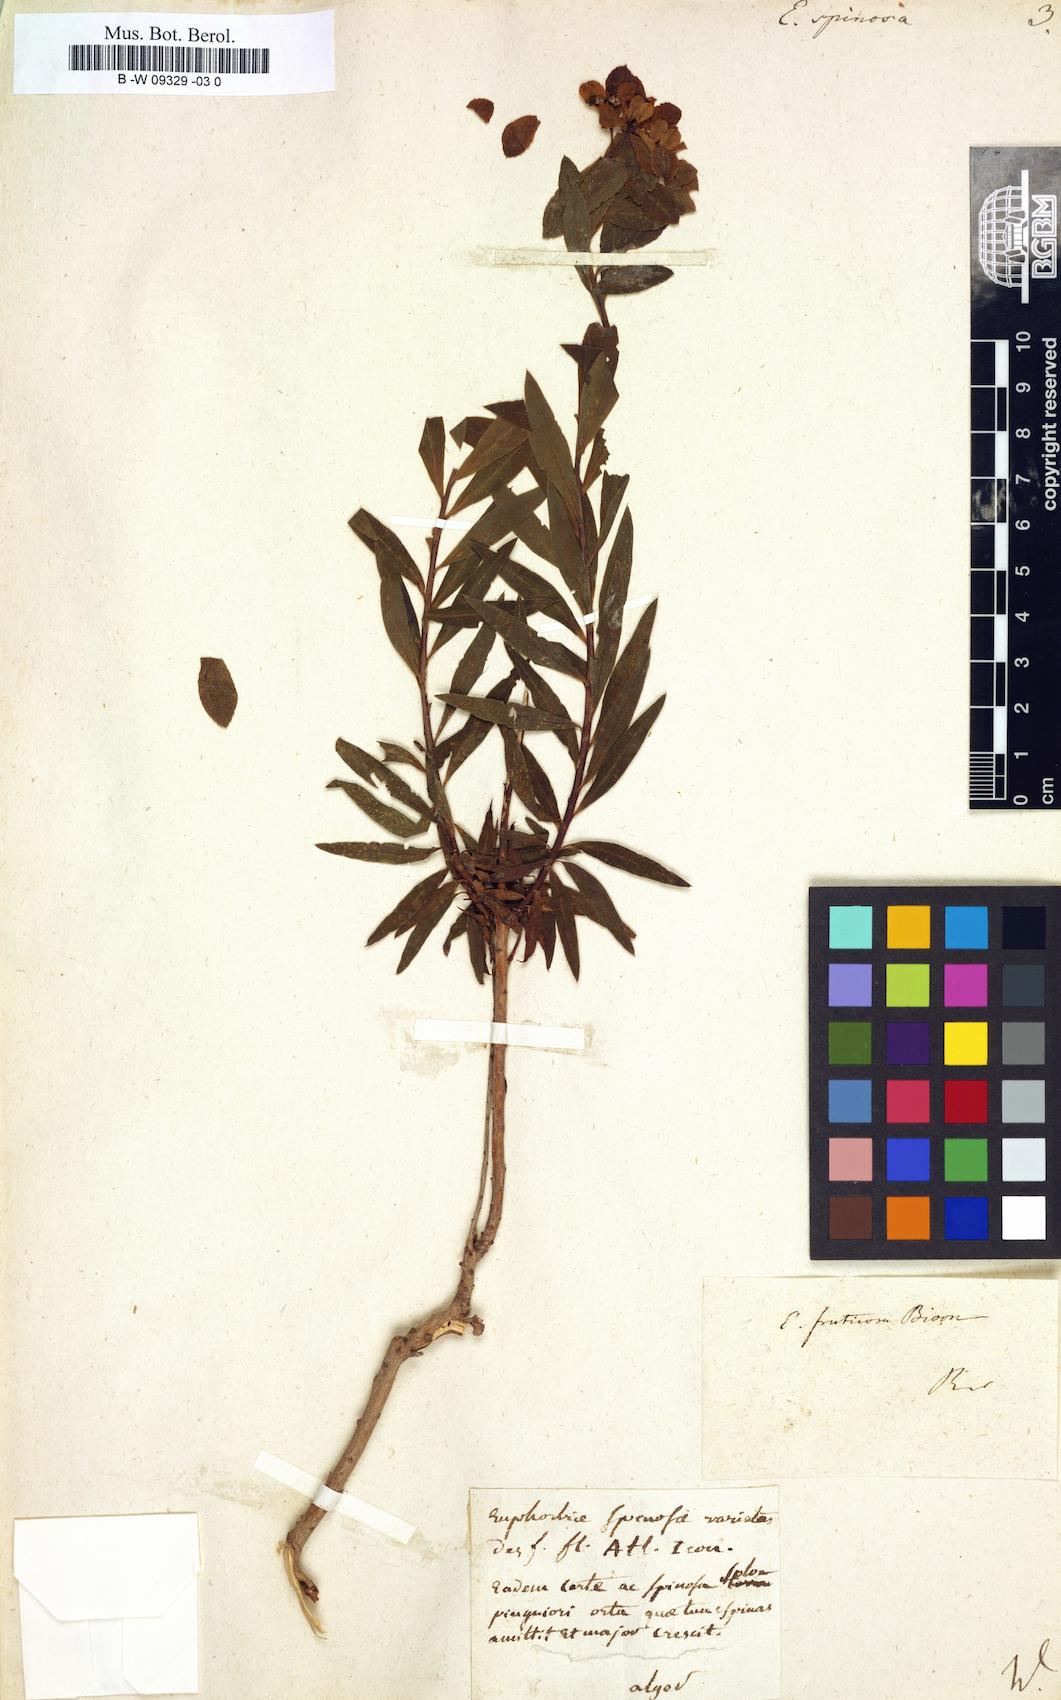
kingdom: Plantae
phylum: Tracheophyta
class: Magnoliopsida
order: Malpighiales
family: Euphorbiaceae
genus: Euphorbia
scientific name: Euphorbia spinosa
